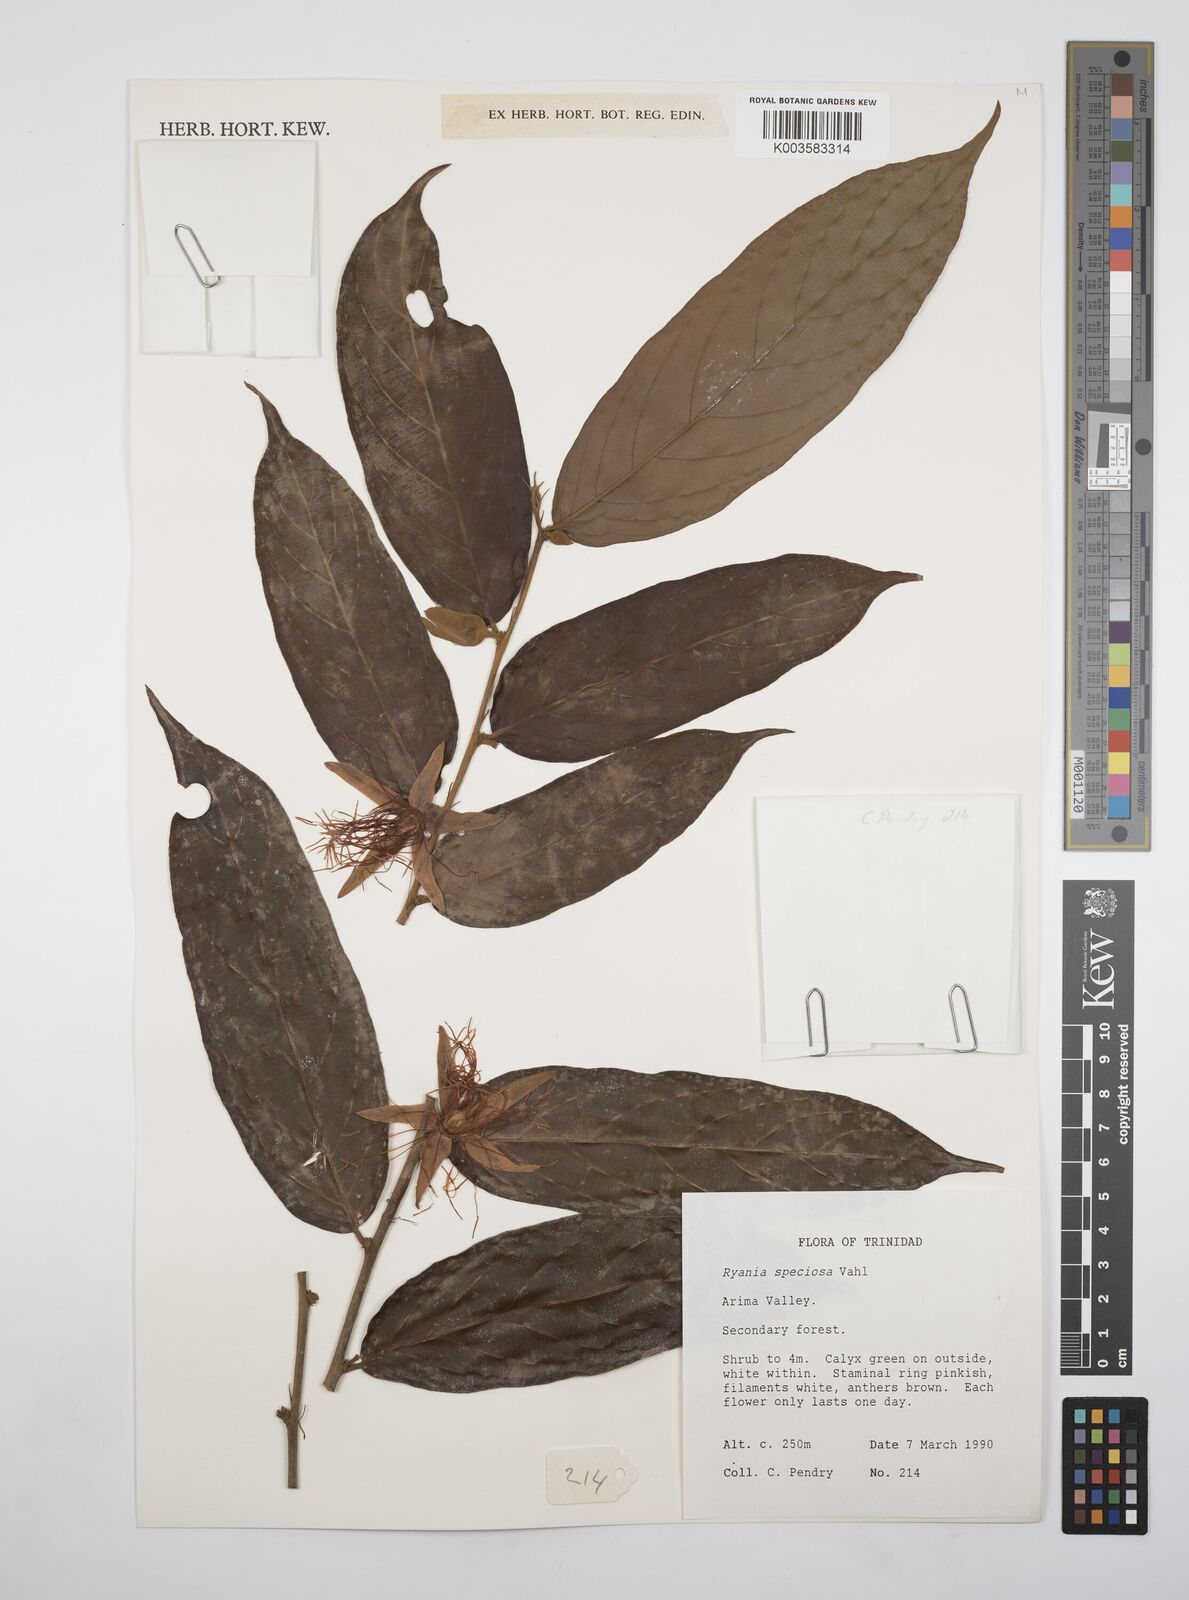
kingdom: Plantae
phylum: Tracheophyta
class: Magnoliopsida
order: Malpighiales
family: Salicaceae
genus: Ryania
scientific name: Ryania speciosa
